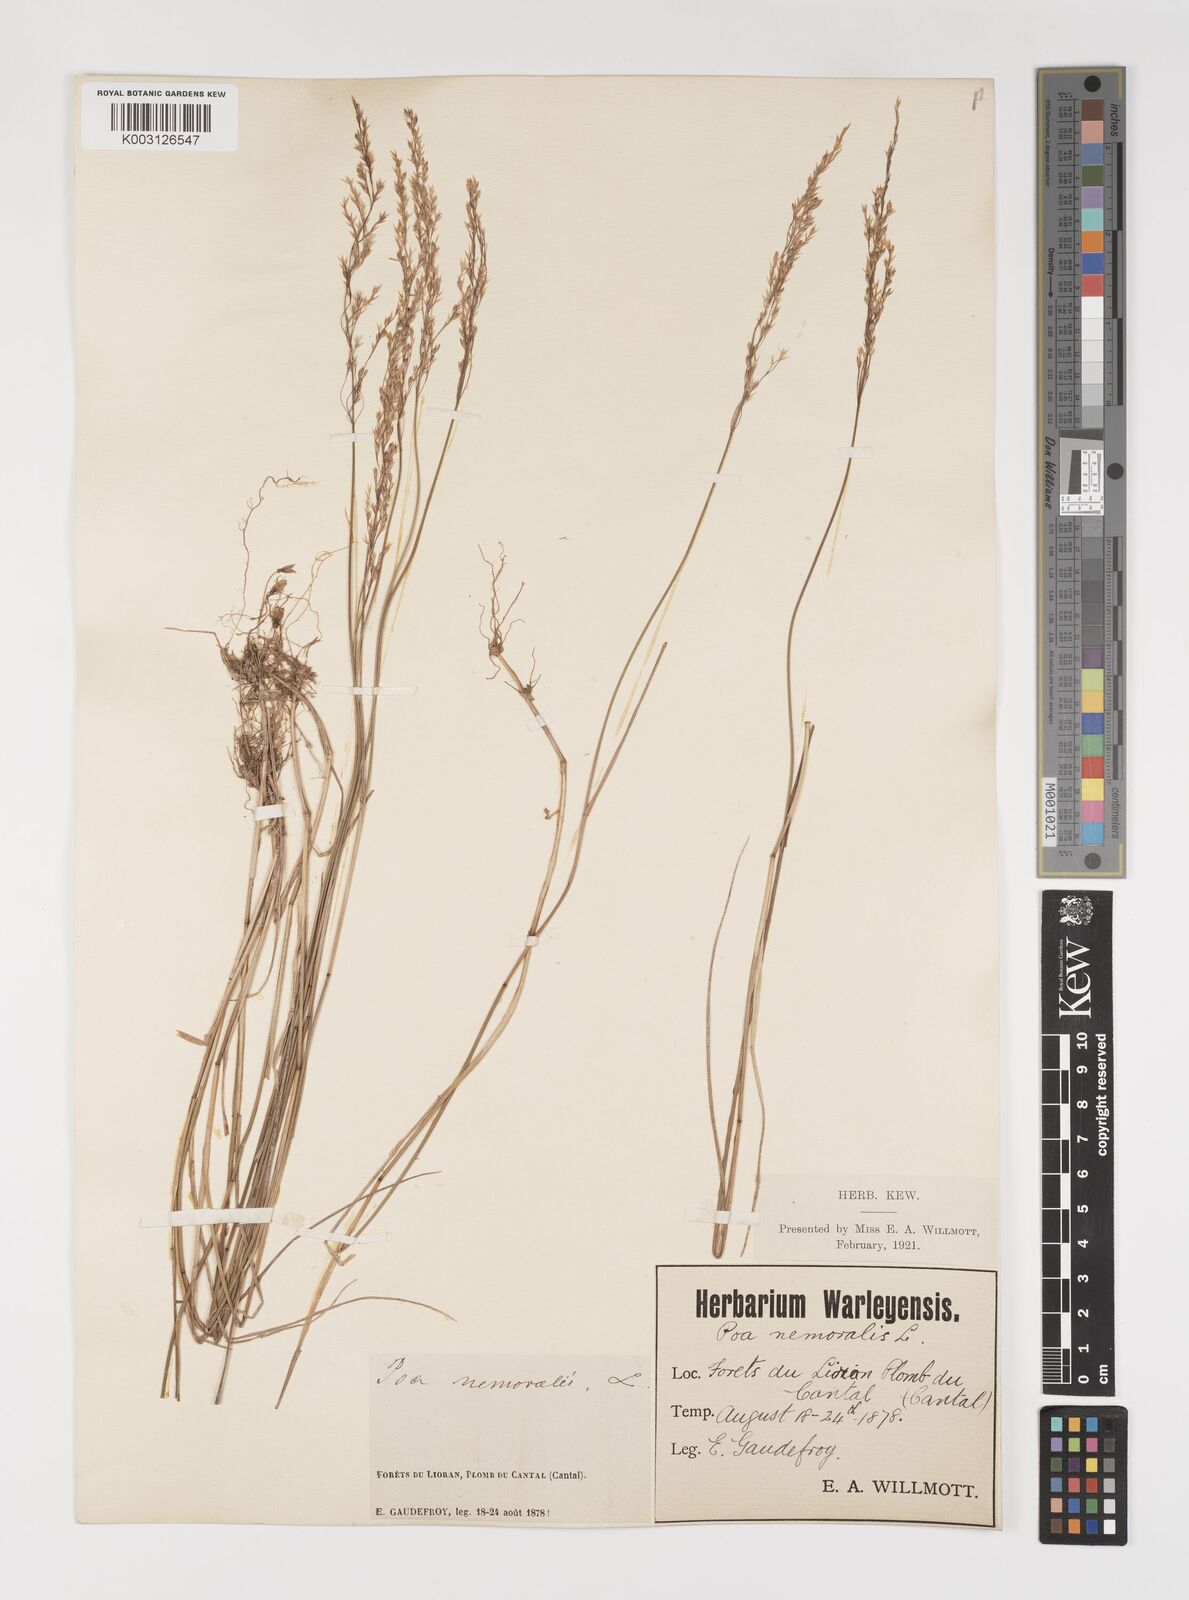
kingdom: Plantae
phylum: Tracheophyta
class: Liliopsida
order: Poales
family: Poaceae
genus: Poa
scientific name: Poa nemoralis
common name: Wood bluegrass
